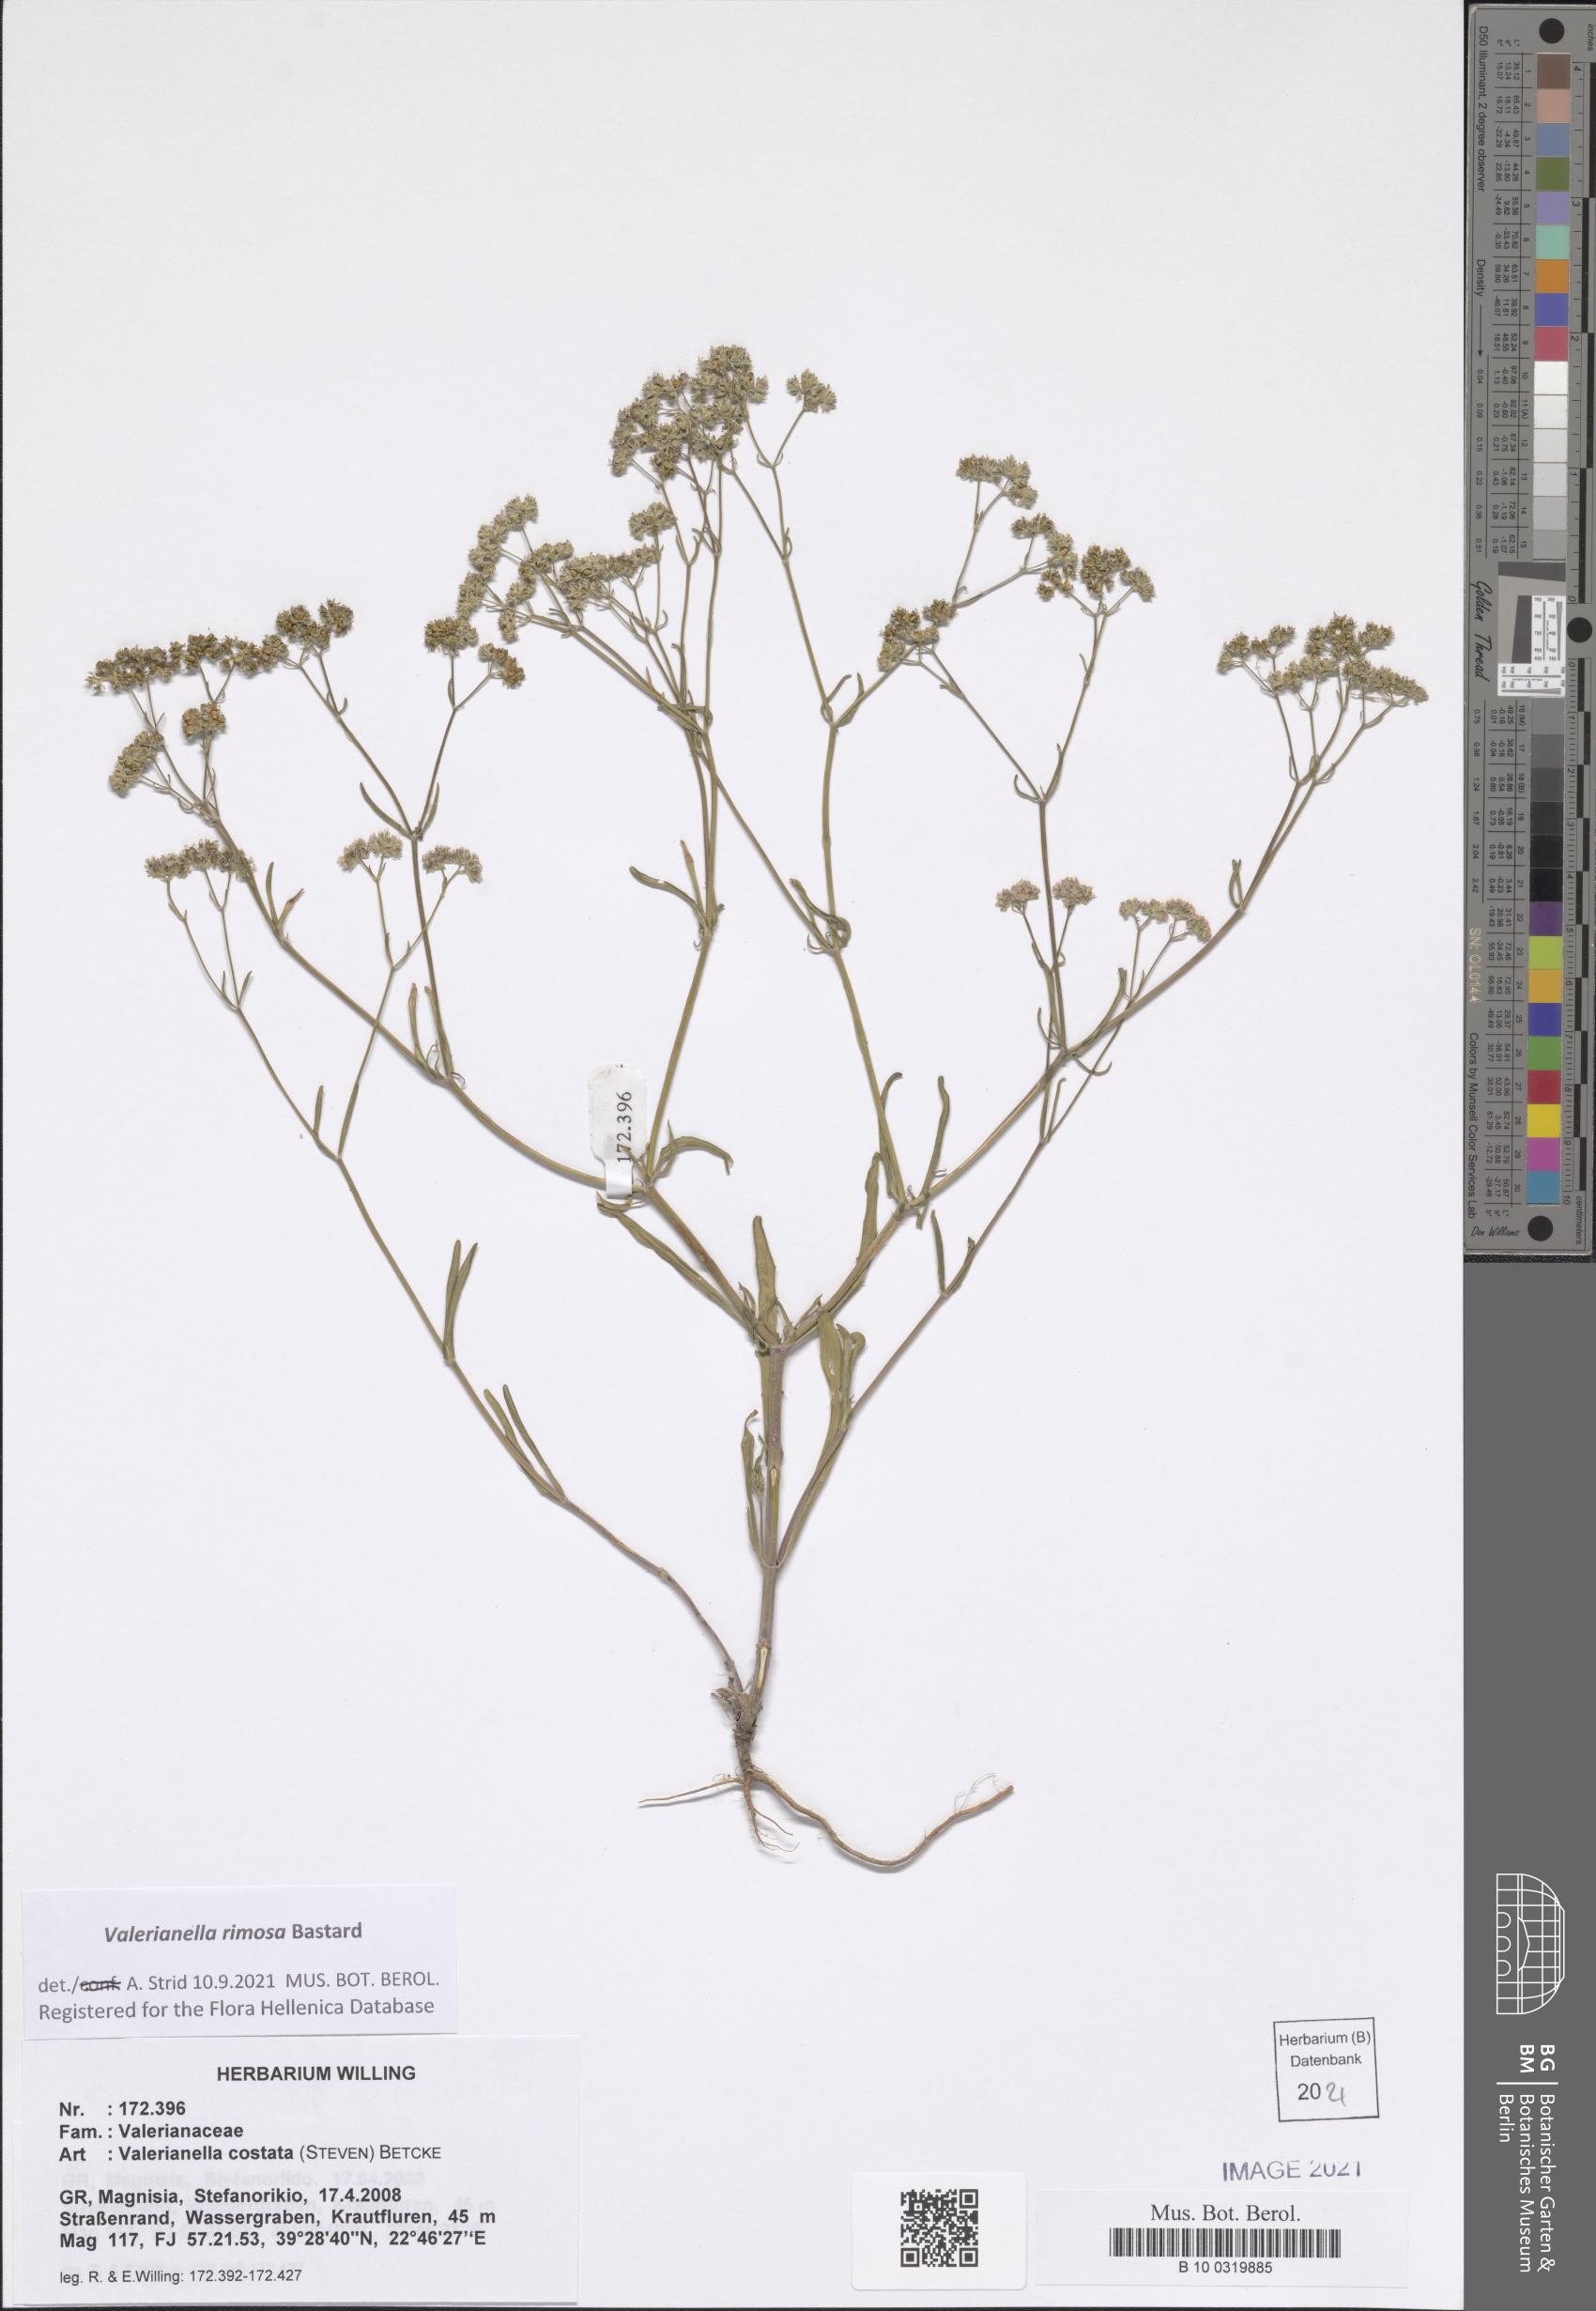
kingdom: Plantae
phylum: Tracheophyta
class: Magnoliopsida
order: Dipsacales
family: Caprifoliaceae
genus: Valerianella
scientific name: Valerianella rimosa
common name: Broad-fruited cornsalad
